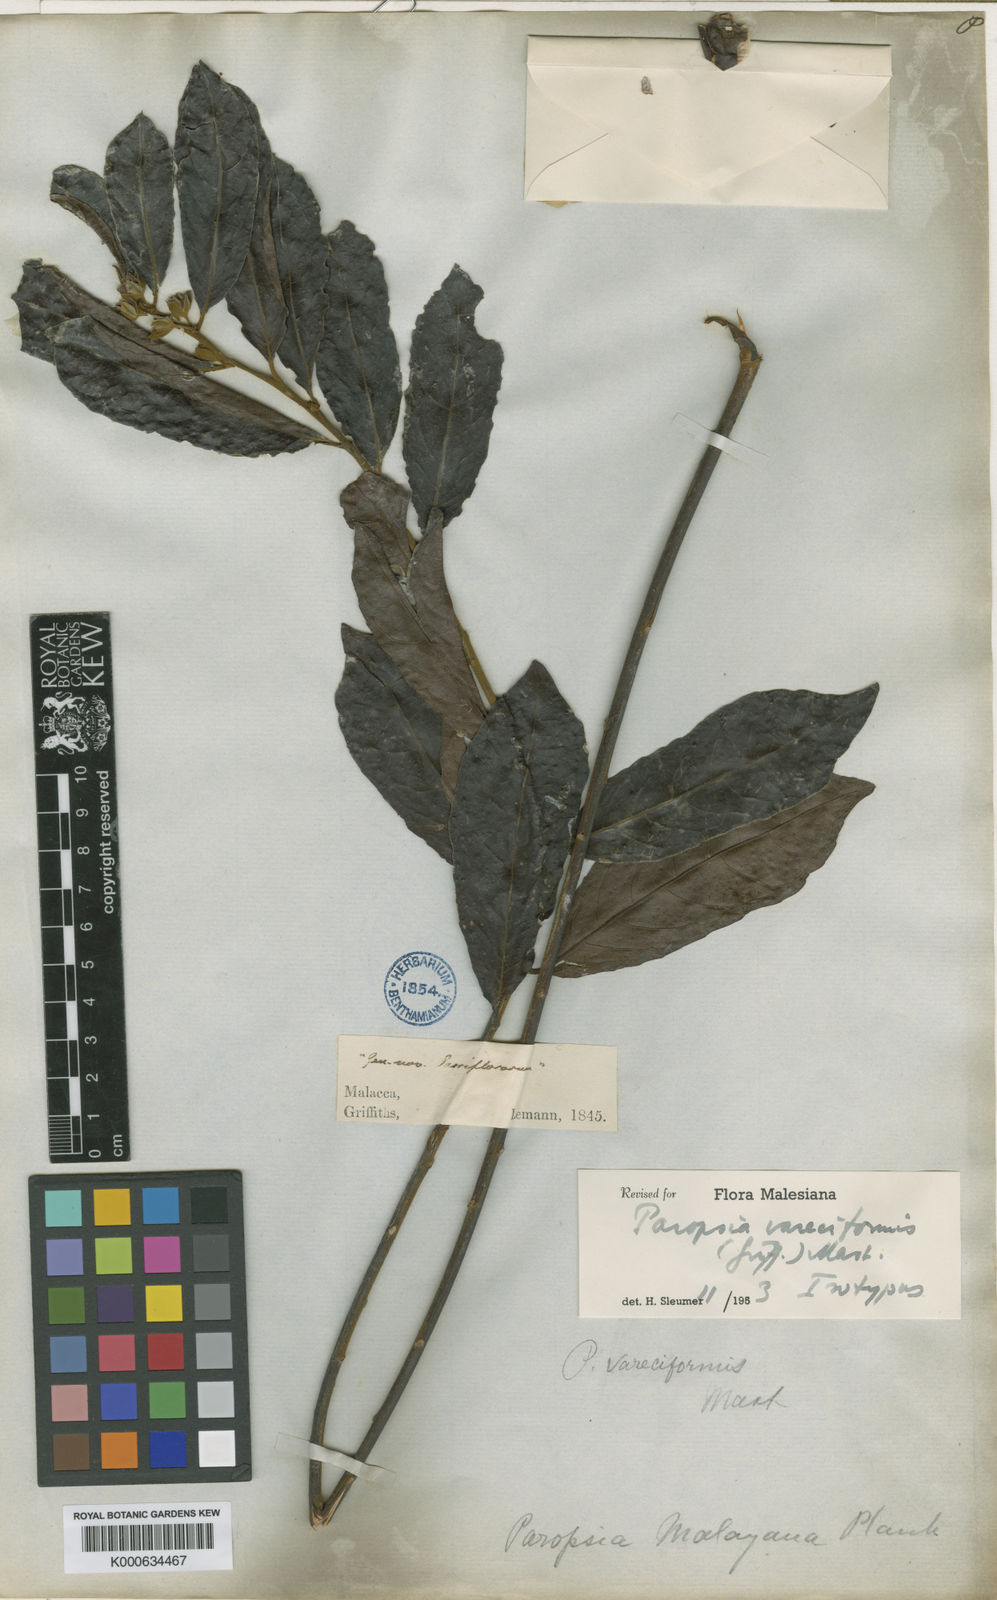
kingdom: Plantae
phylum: Tracheophyta
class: Magnoliopsida
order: Malpighiales
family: Passifloraceae
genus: Paropsia
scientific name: Paropsia vareciformis
